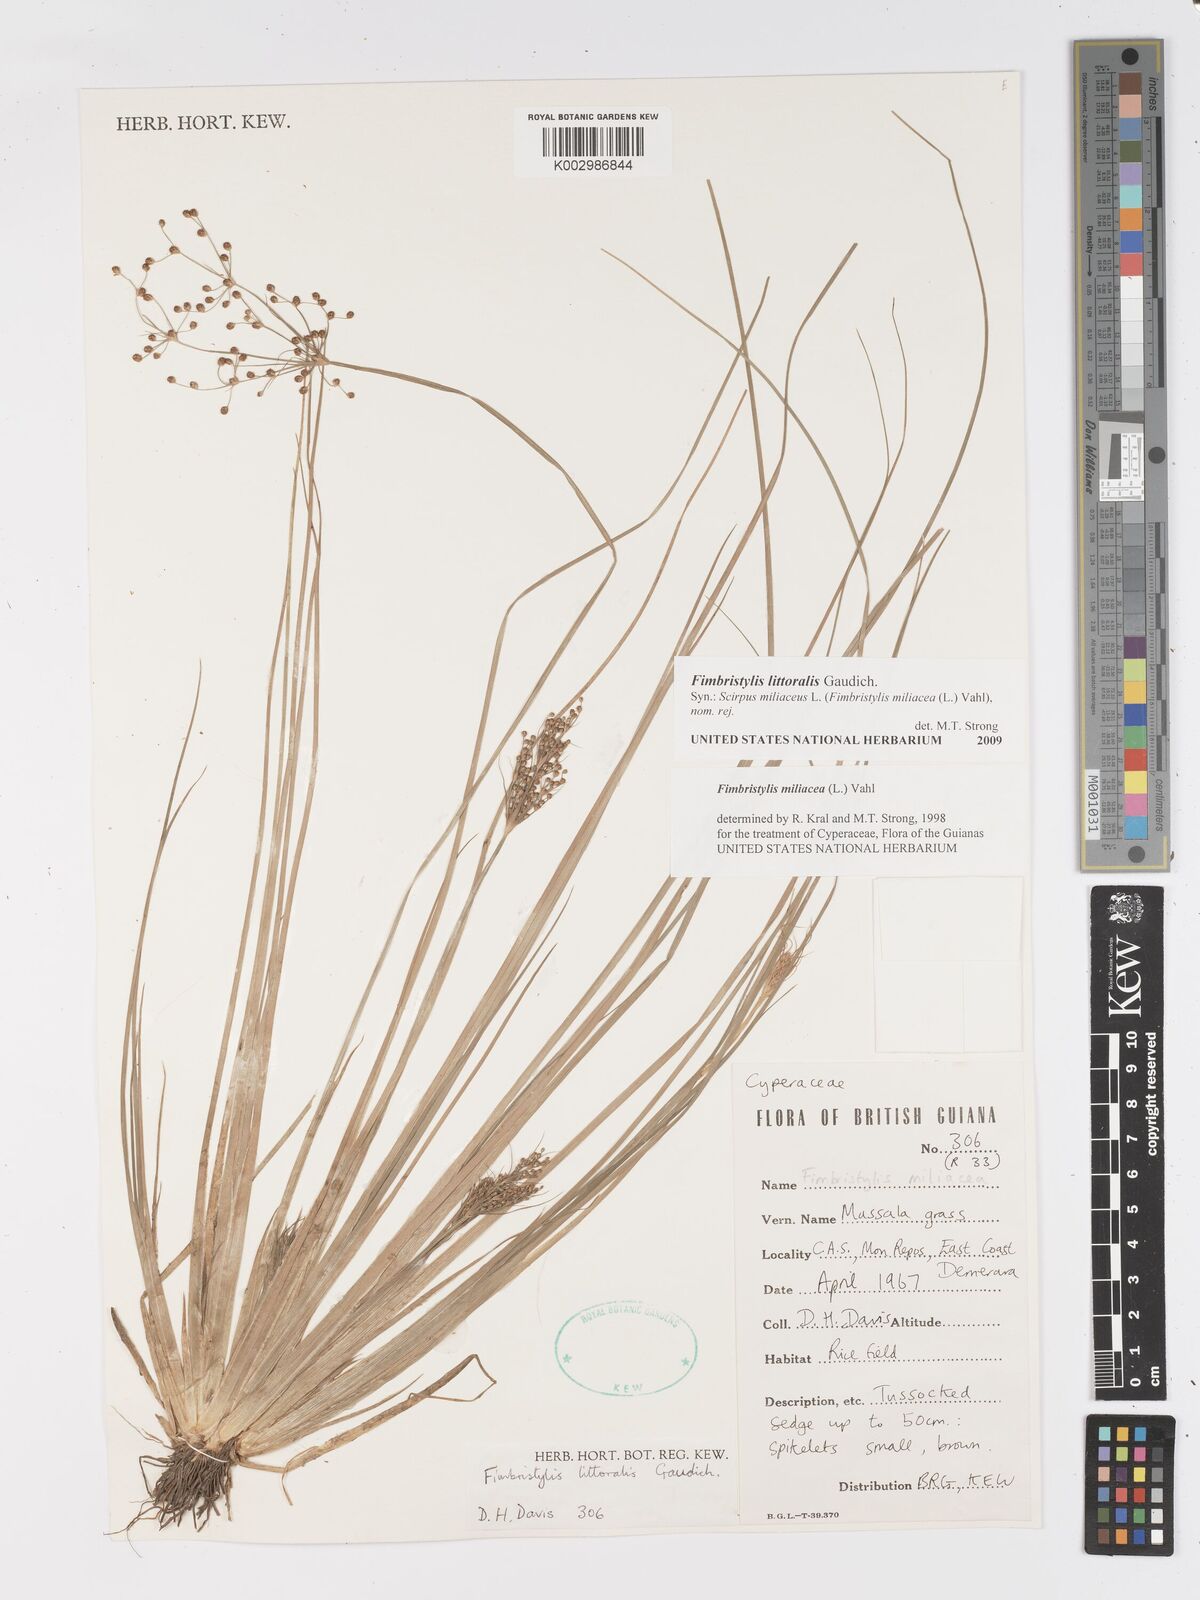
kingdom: Plantae
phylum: Tracheophyta
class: Liliopsida
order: Poales
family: Cyperaceae
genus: Fimbristylis
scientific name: Fimbristylis littoralis
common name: Fimbry
